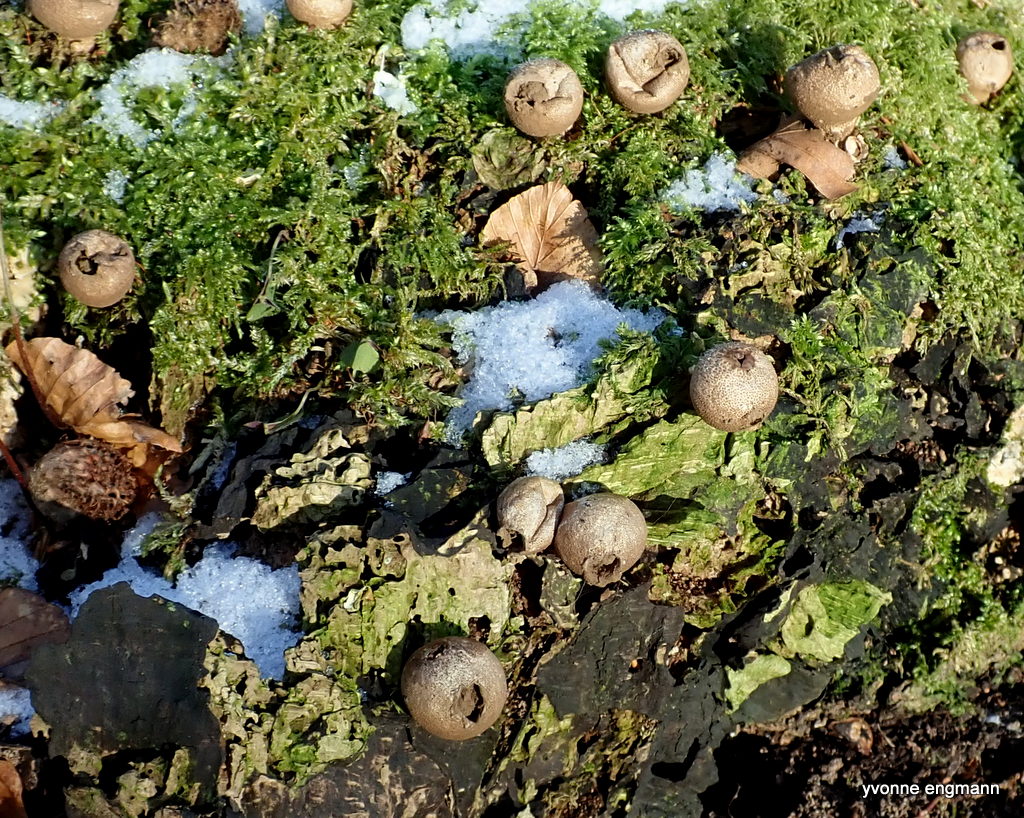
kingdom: Fungi
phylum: Basidiomycota
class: Agaricomycetes
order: Agaricales
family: Lycoperdaceae
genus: Apioperdon
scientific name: Apioperdon pyriforme
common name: pære-støvbold
